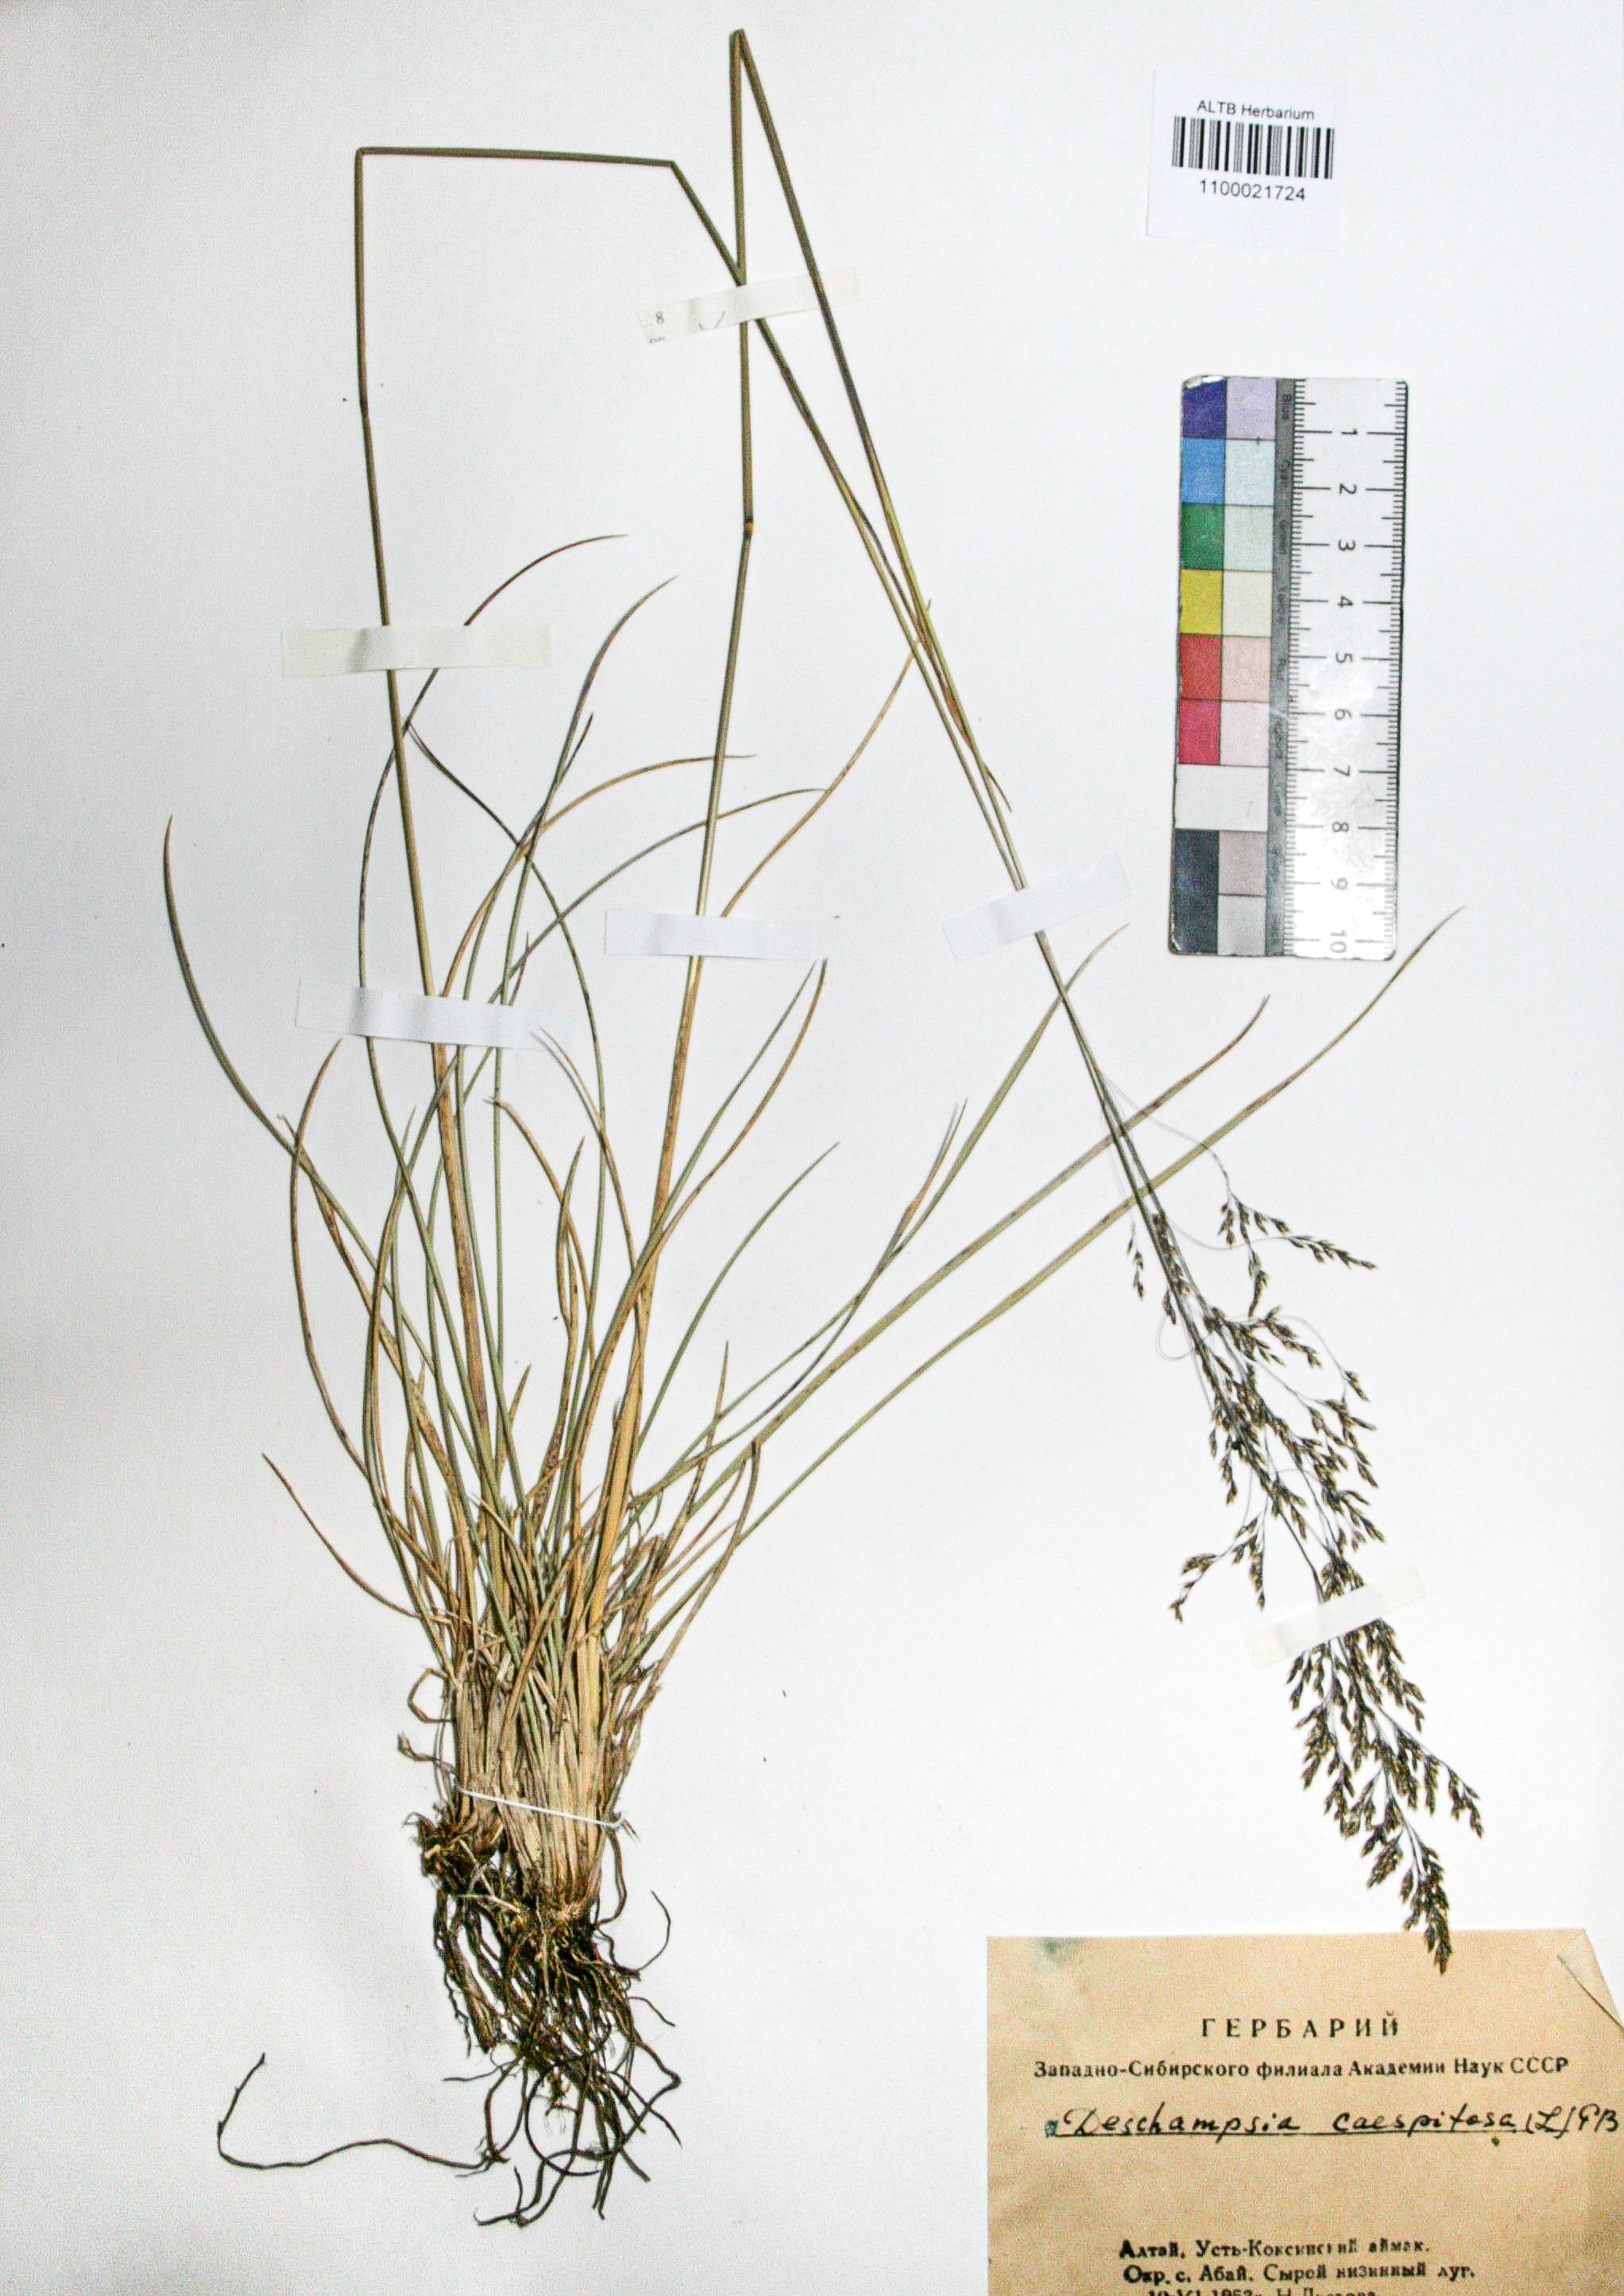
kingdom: Plantae
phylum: Tracheophyta
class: Liliopsida
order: Poales
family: Poaceae
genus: Deschampsia
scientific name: Deschampsia cespitosa
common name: Tufted hair-grass
